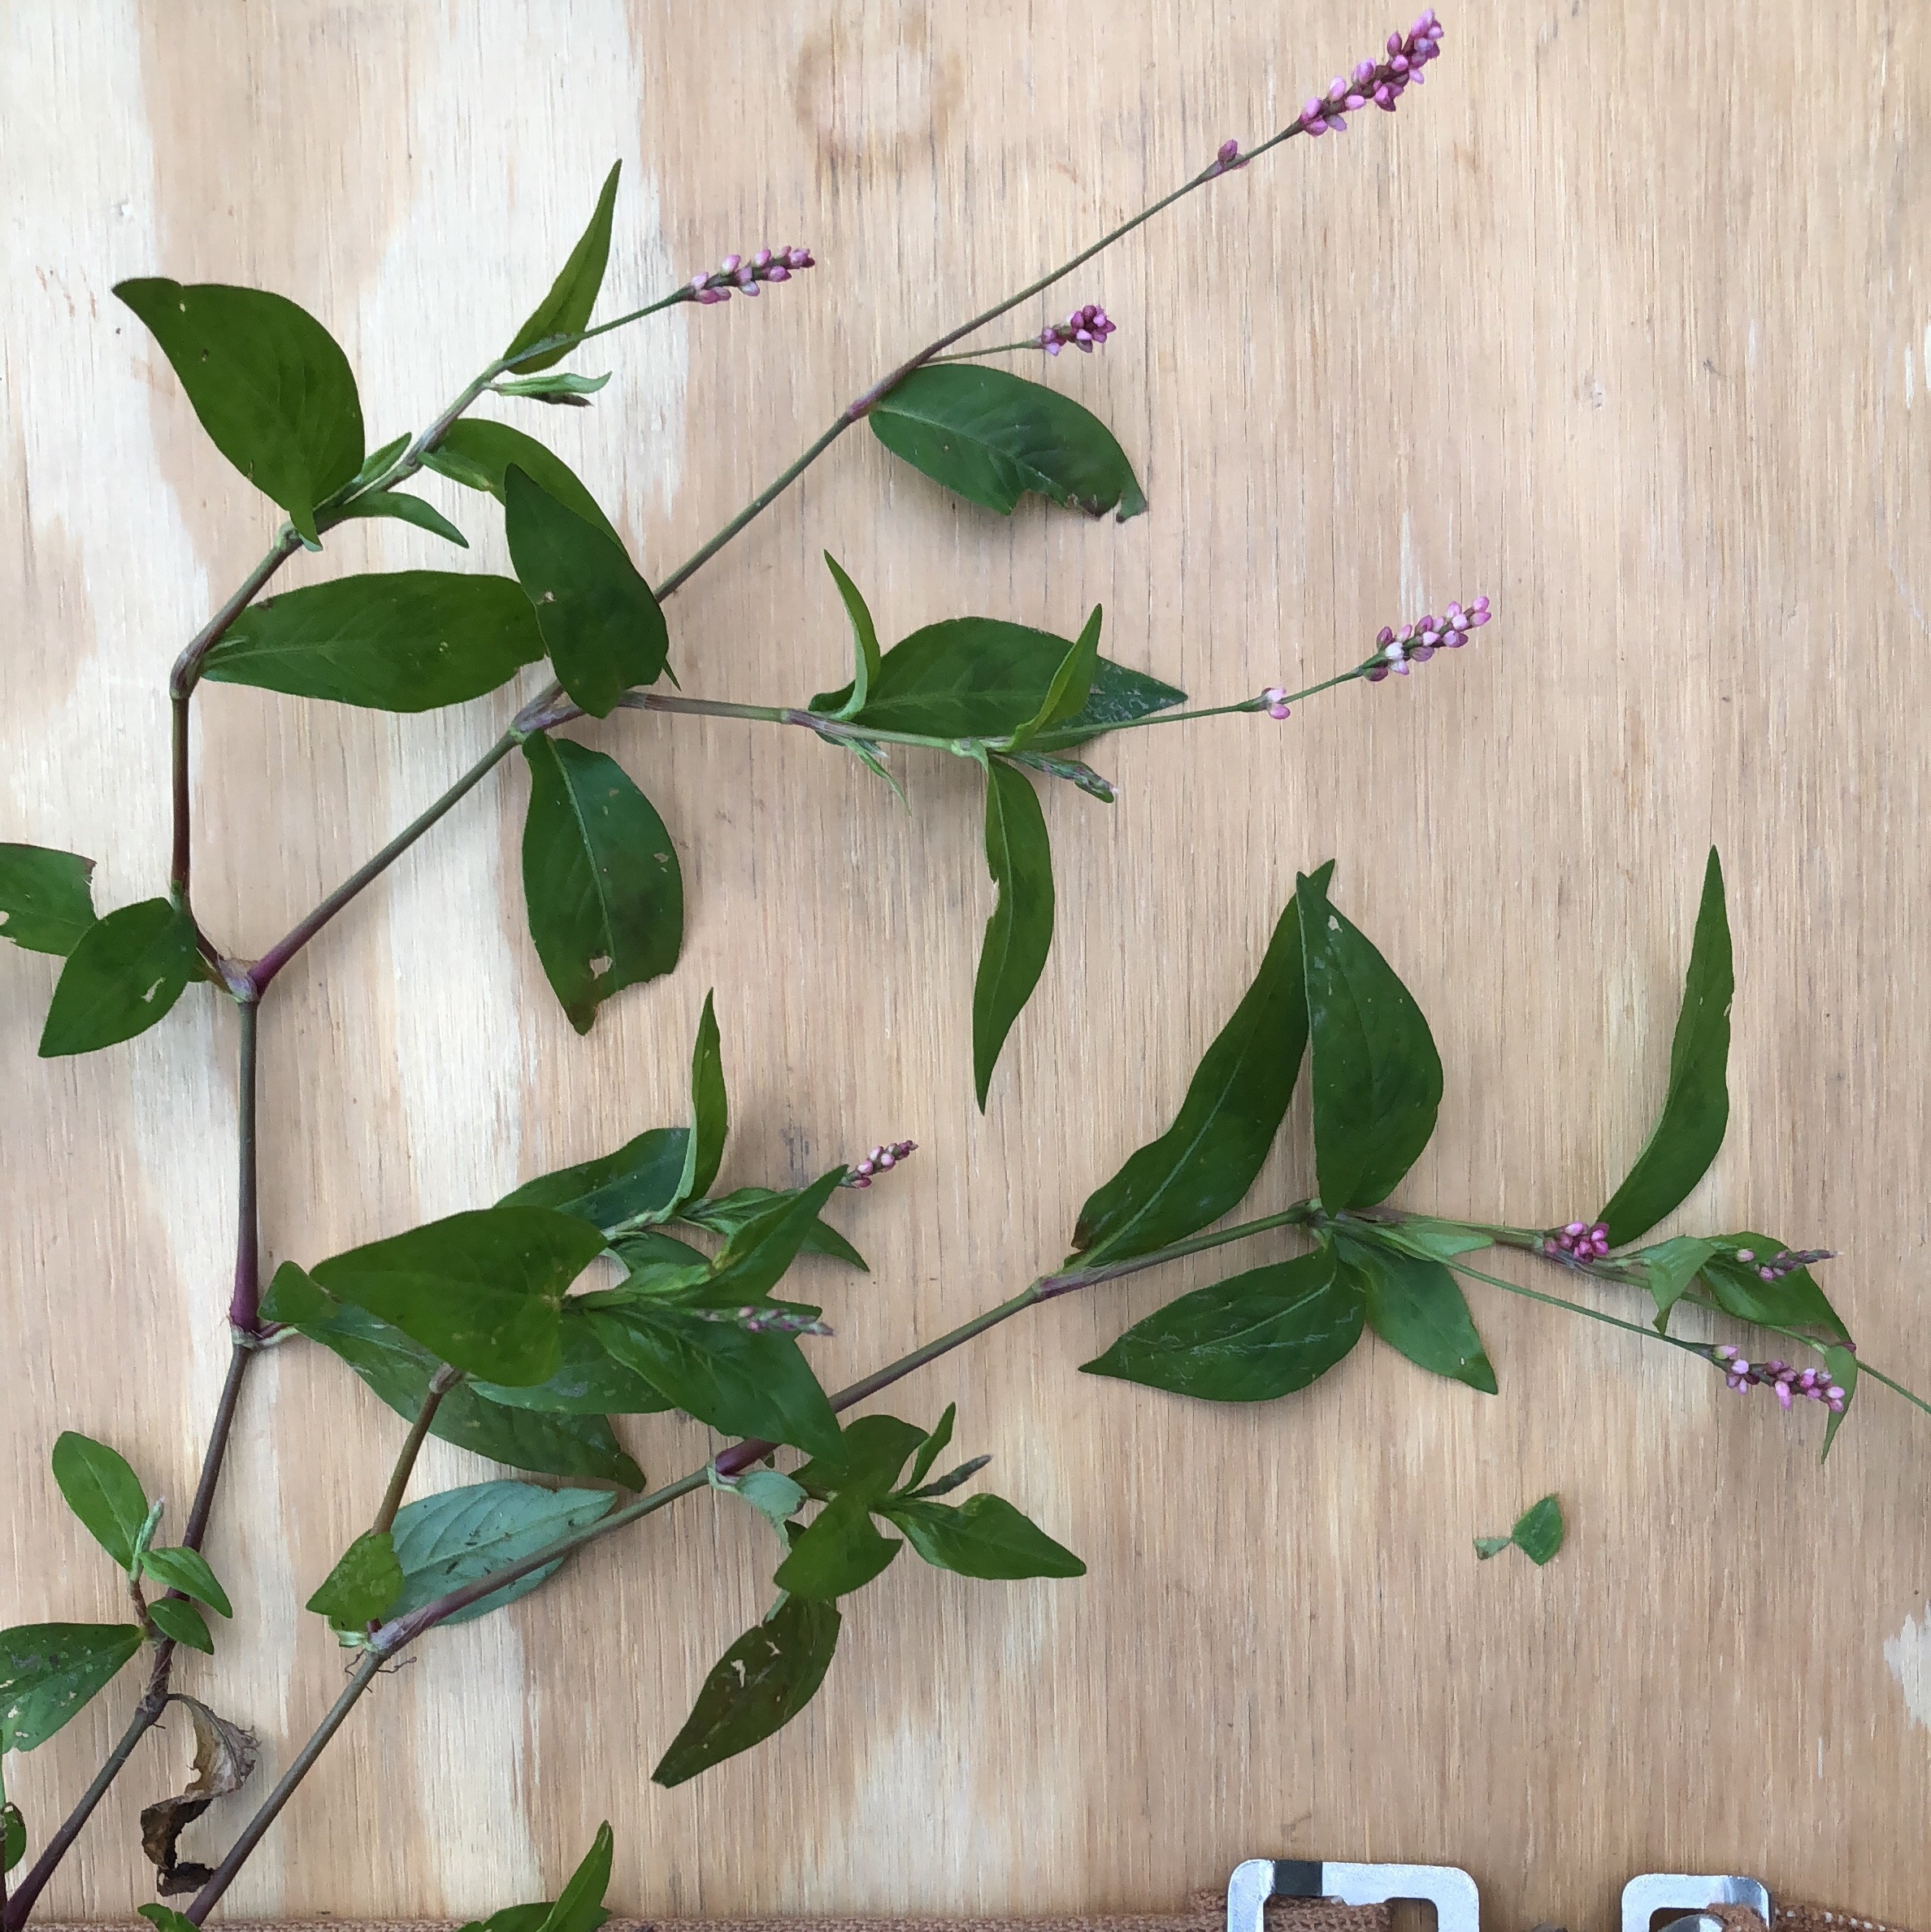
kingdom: Plantae
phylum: Tracheophyta
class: Magnoliopsida
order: Caryophyllales
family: Polygonaceae
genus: Persicaria
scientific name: Persicaria longiseta
